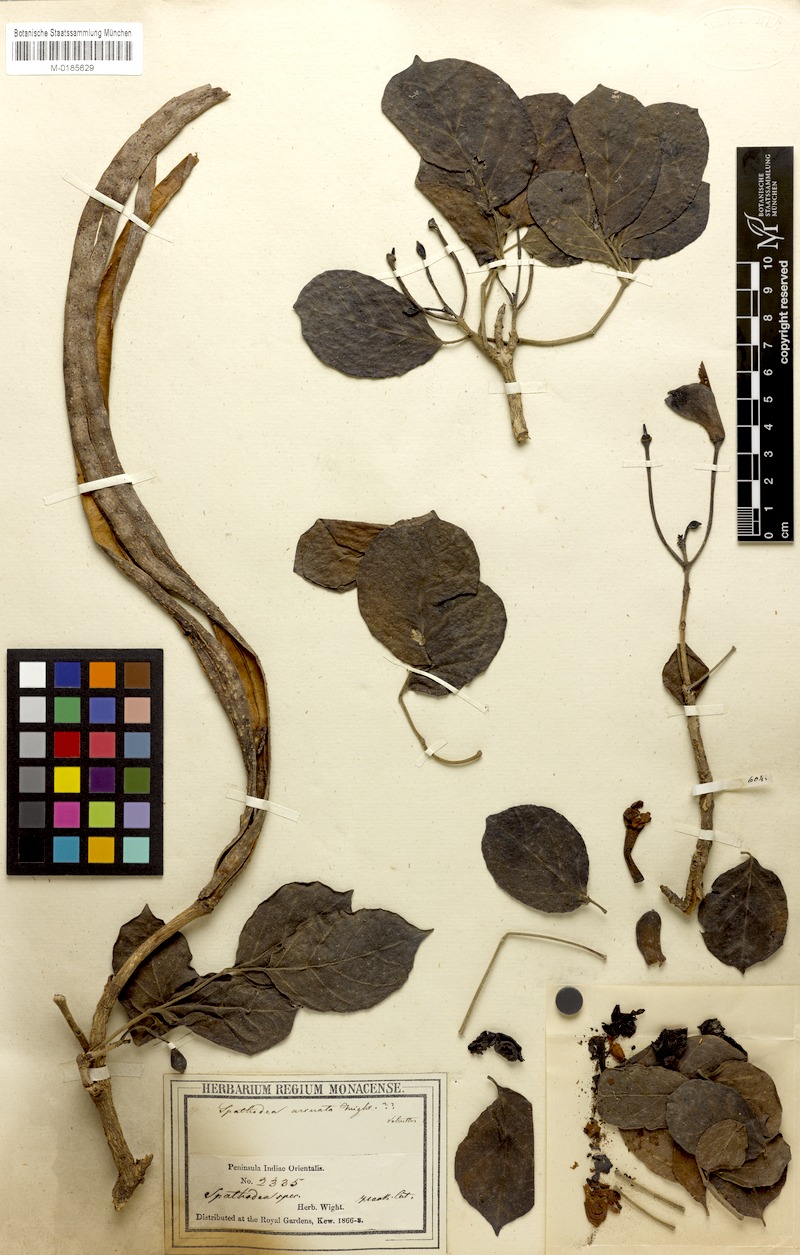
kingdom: Plantae
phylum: Tracheophyta
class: Magnoliopsida
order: Lamiales
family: Bignoniaceae
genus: Dolichandrone
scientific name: Dolichandrone arcuata
